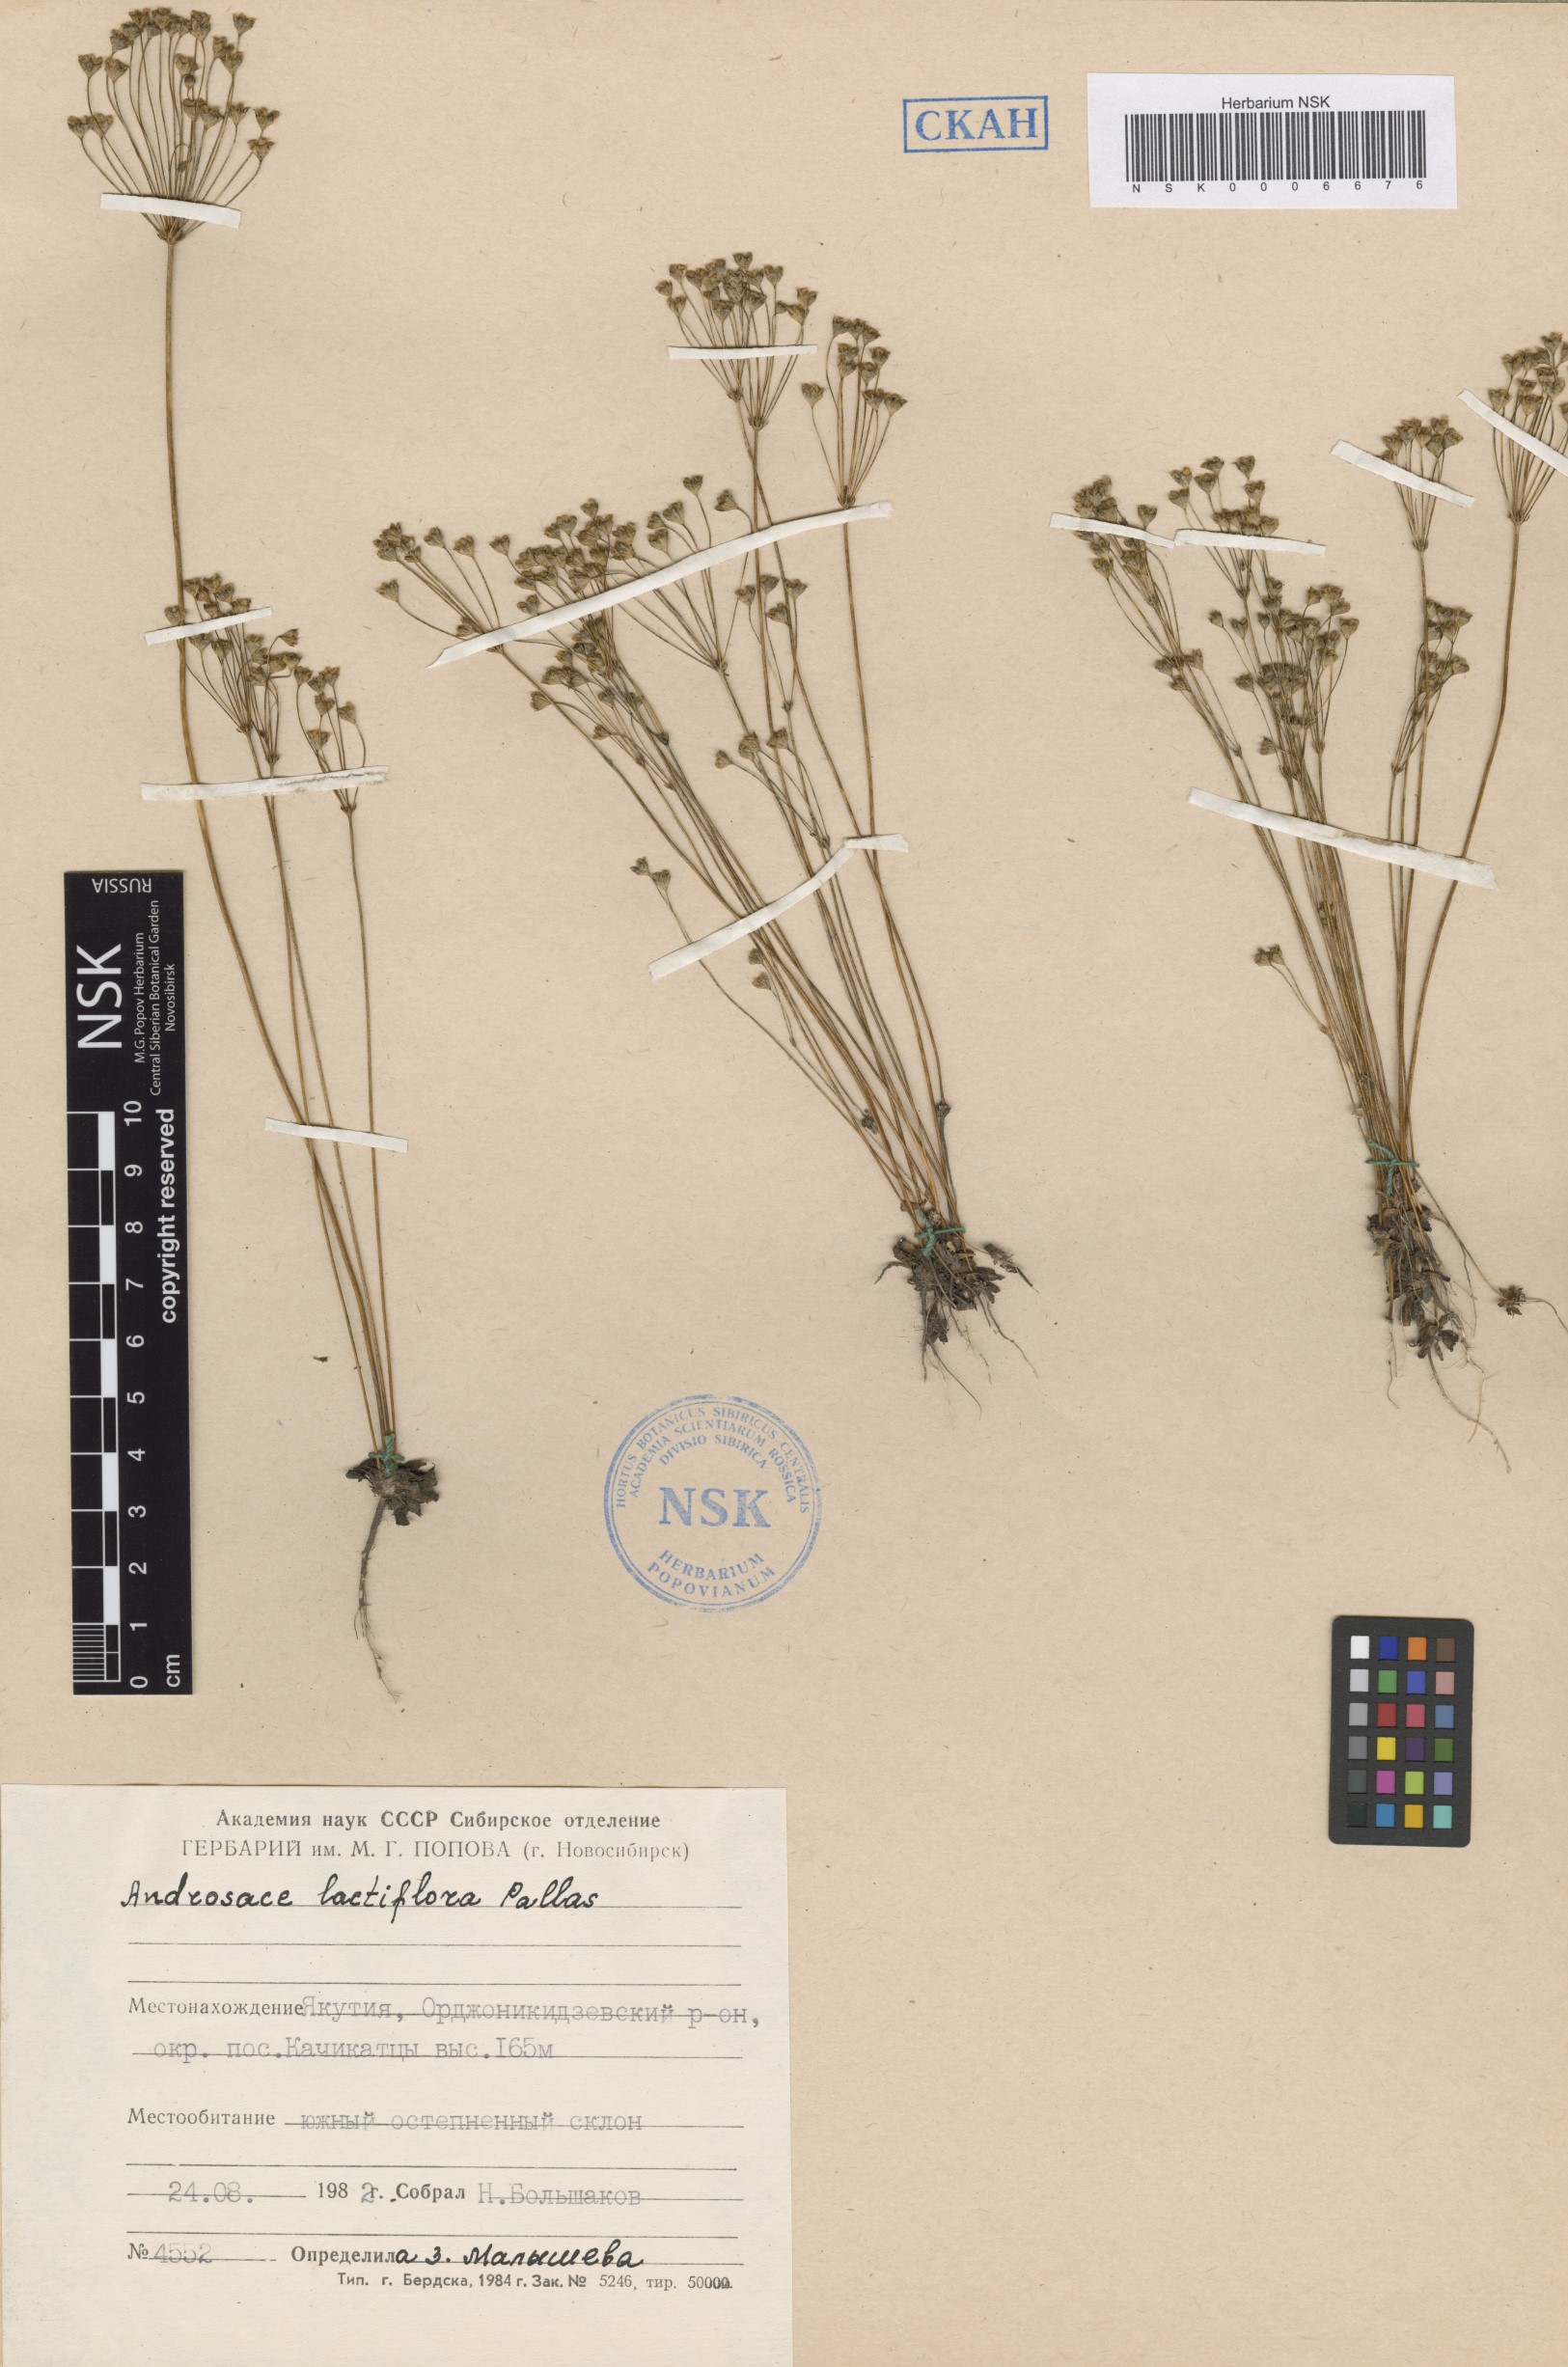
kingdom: Plantae
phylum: Tracheophyta
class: Magnoliopsida
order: Ericales
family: Primulaceae
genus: Androsace
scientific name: Androsace lactiflora
